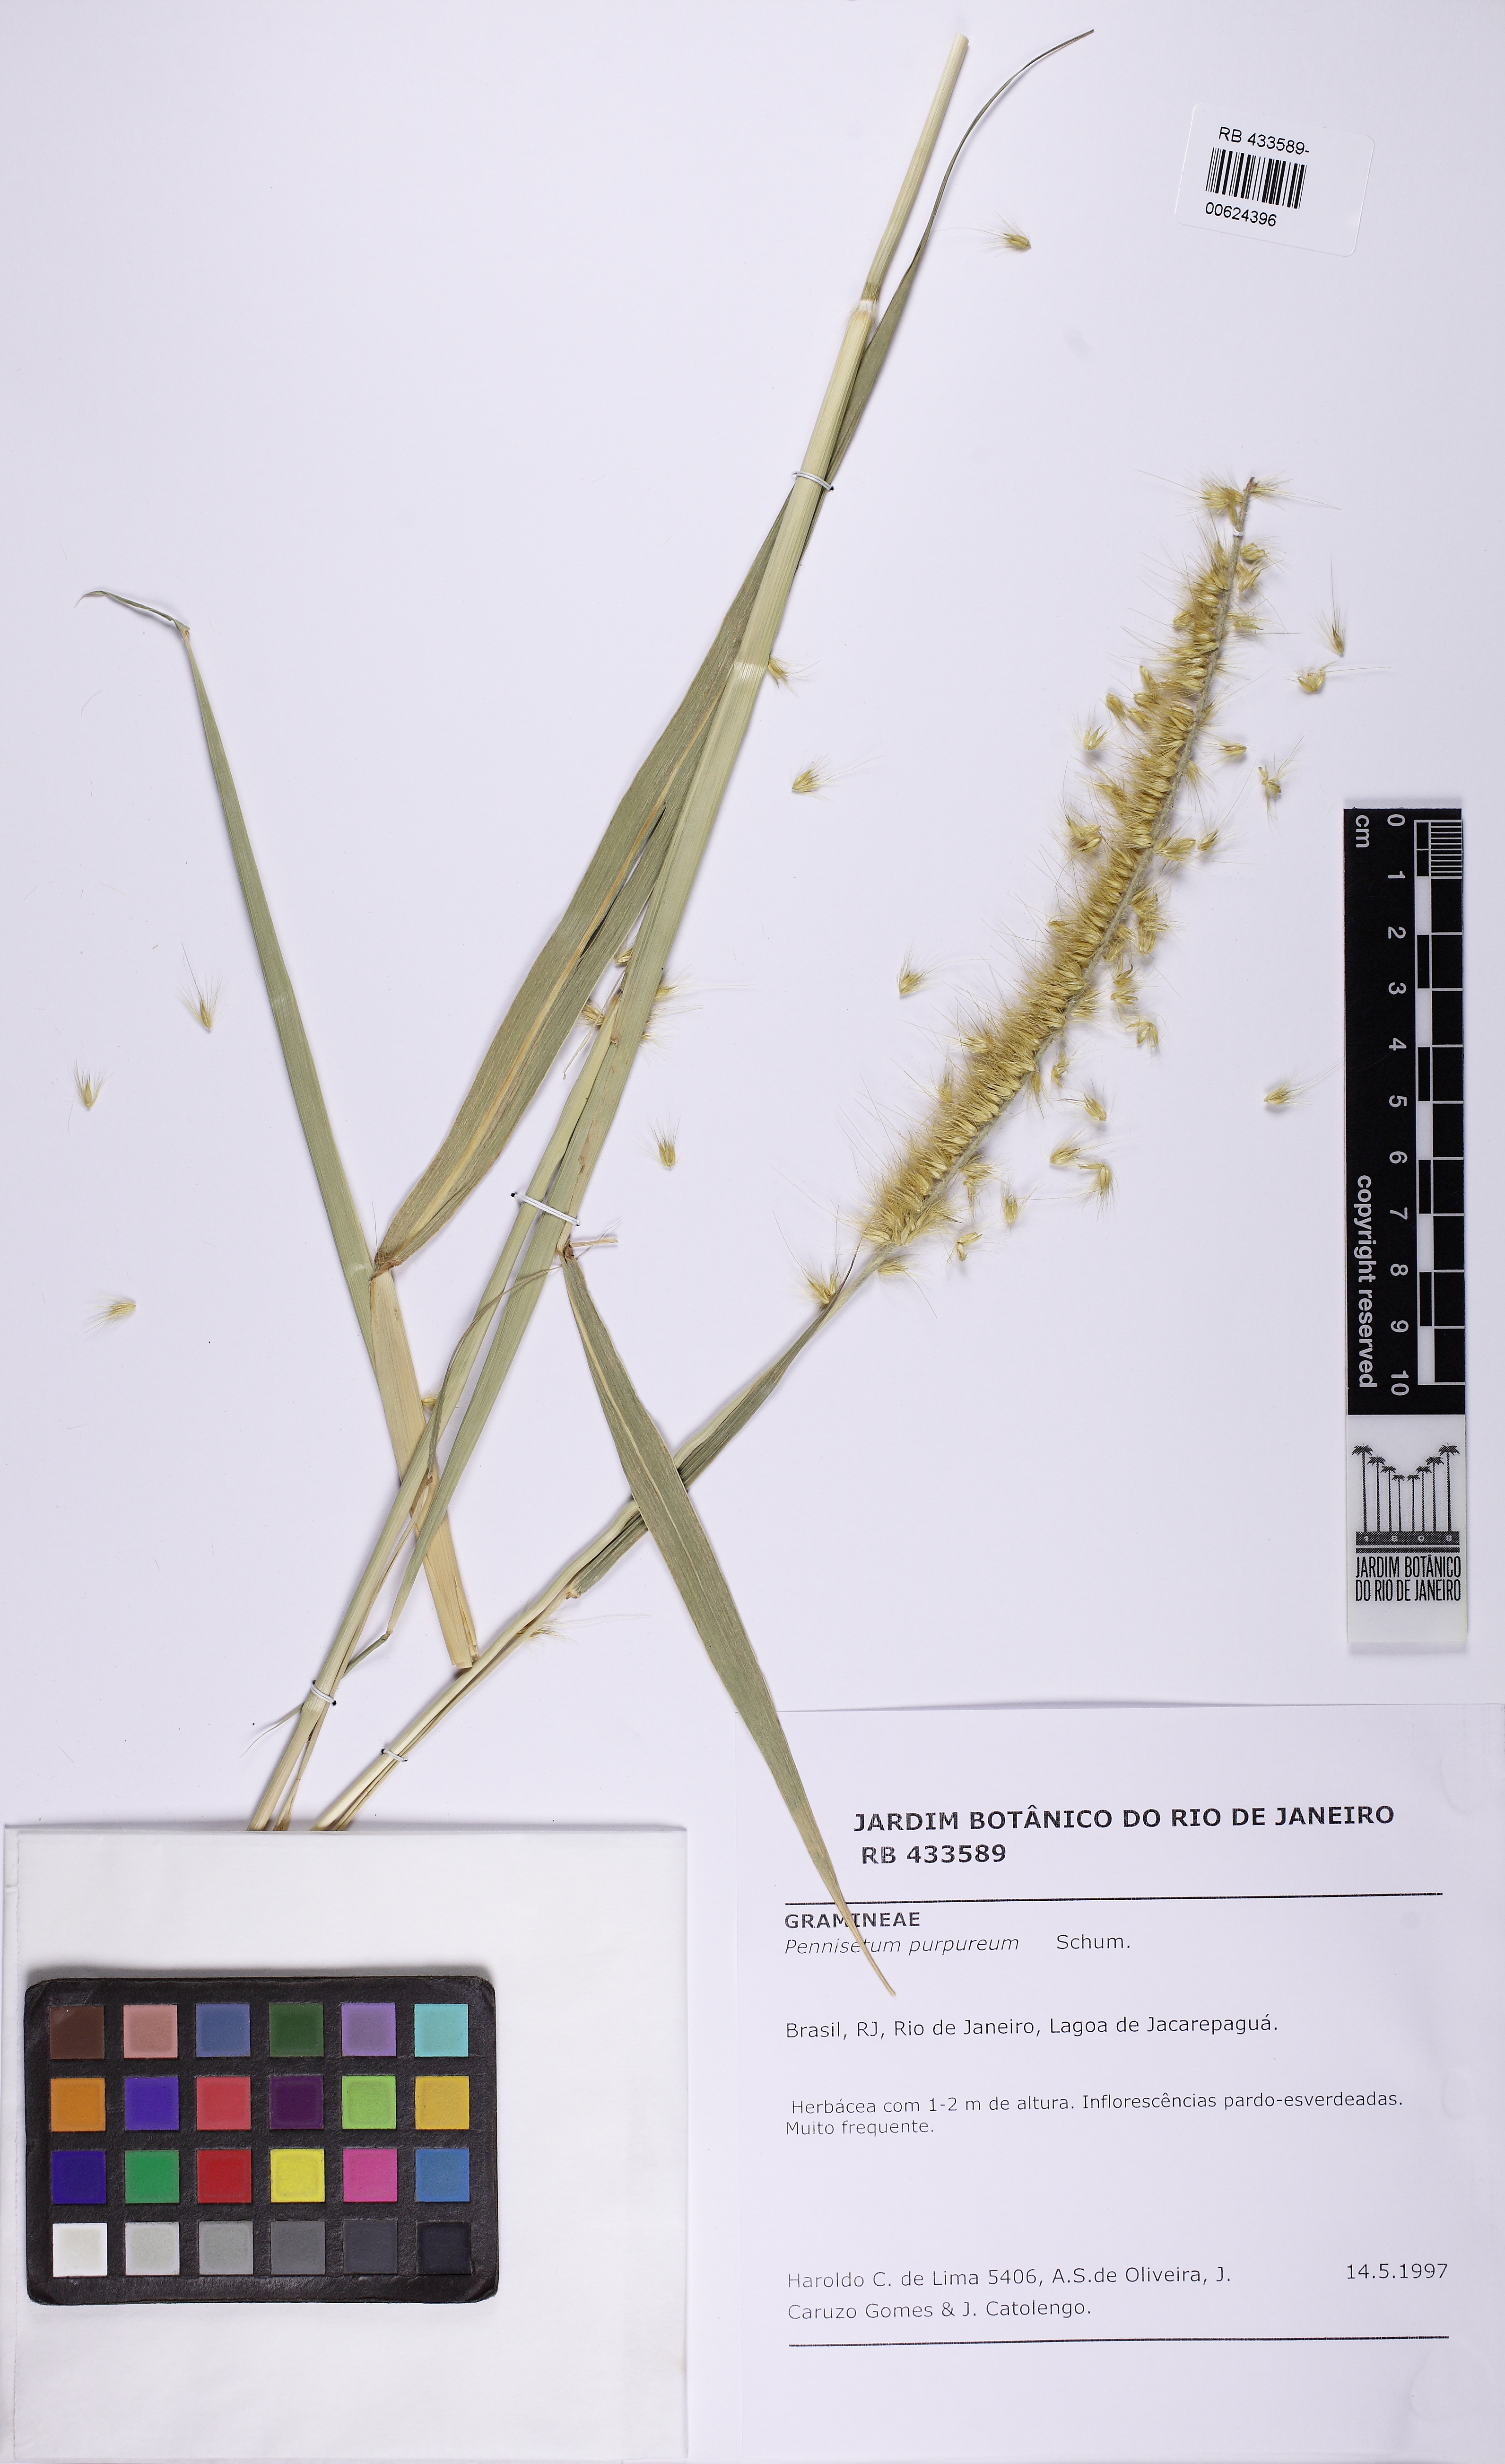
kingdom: Plantae
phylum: Tracheophyta
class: Liliopsida
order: Poales
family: Poaceae
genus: Cenchrus
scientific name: Cenchrus purpureus
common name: Elephant grass
